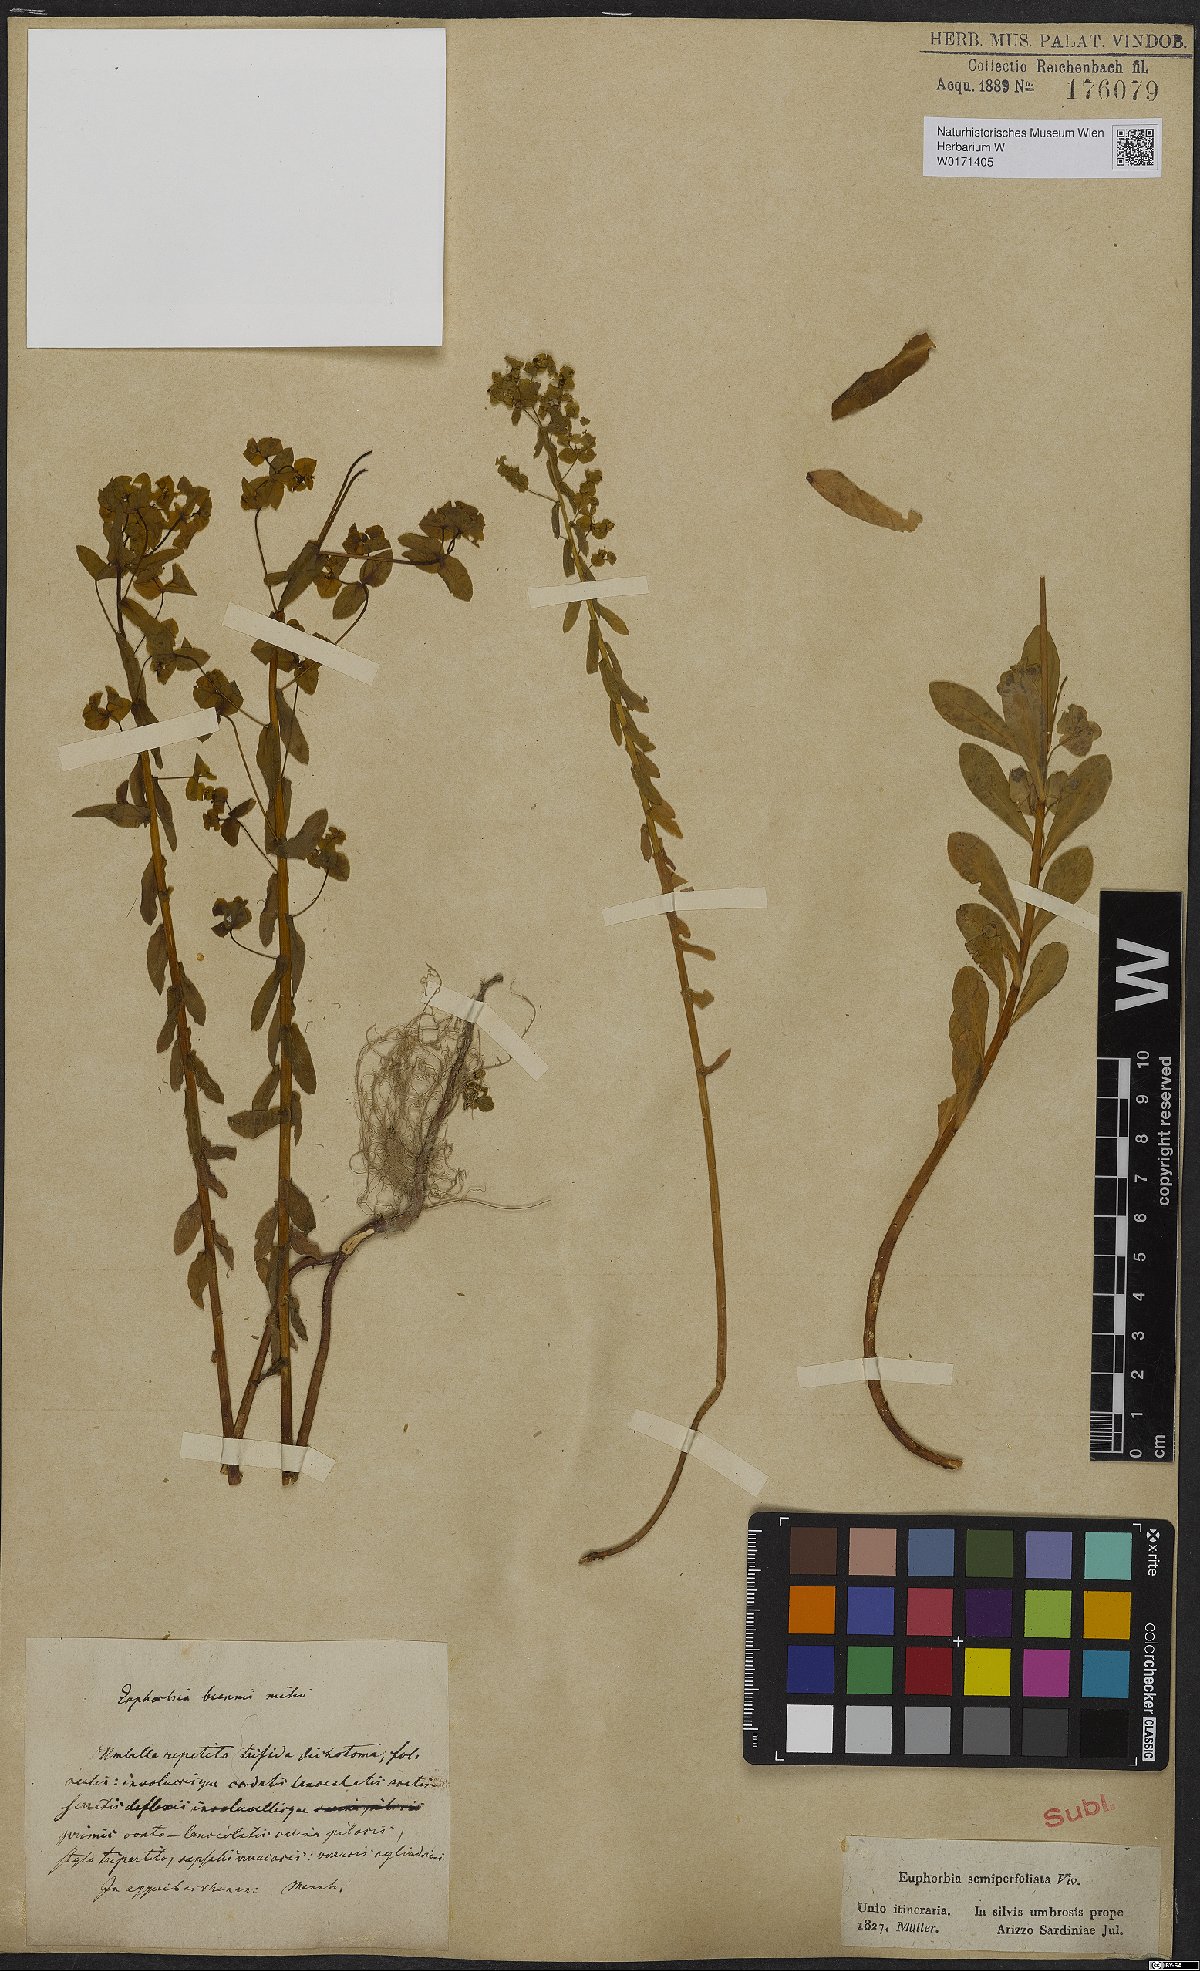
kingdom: Plantae
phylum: Tracheophyta
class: Magnoliopsida
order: Malpighiales
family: Euphorbiaceae
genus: Euphorbia
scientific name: Euphorbia semiperfoliata
